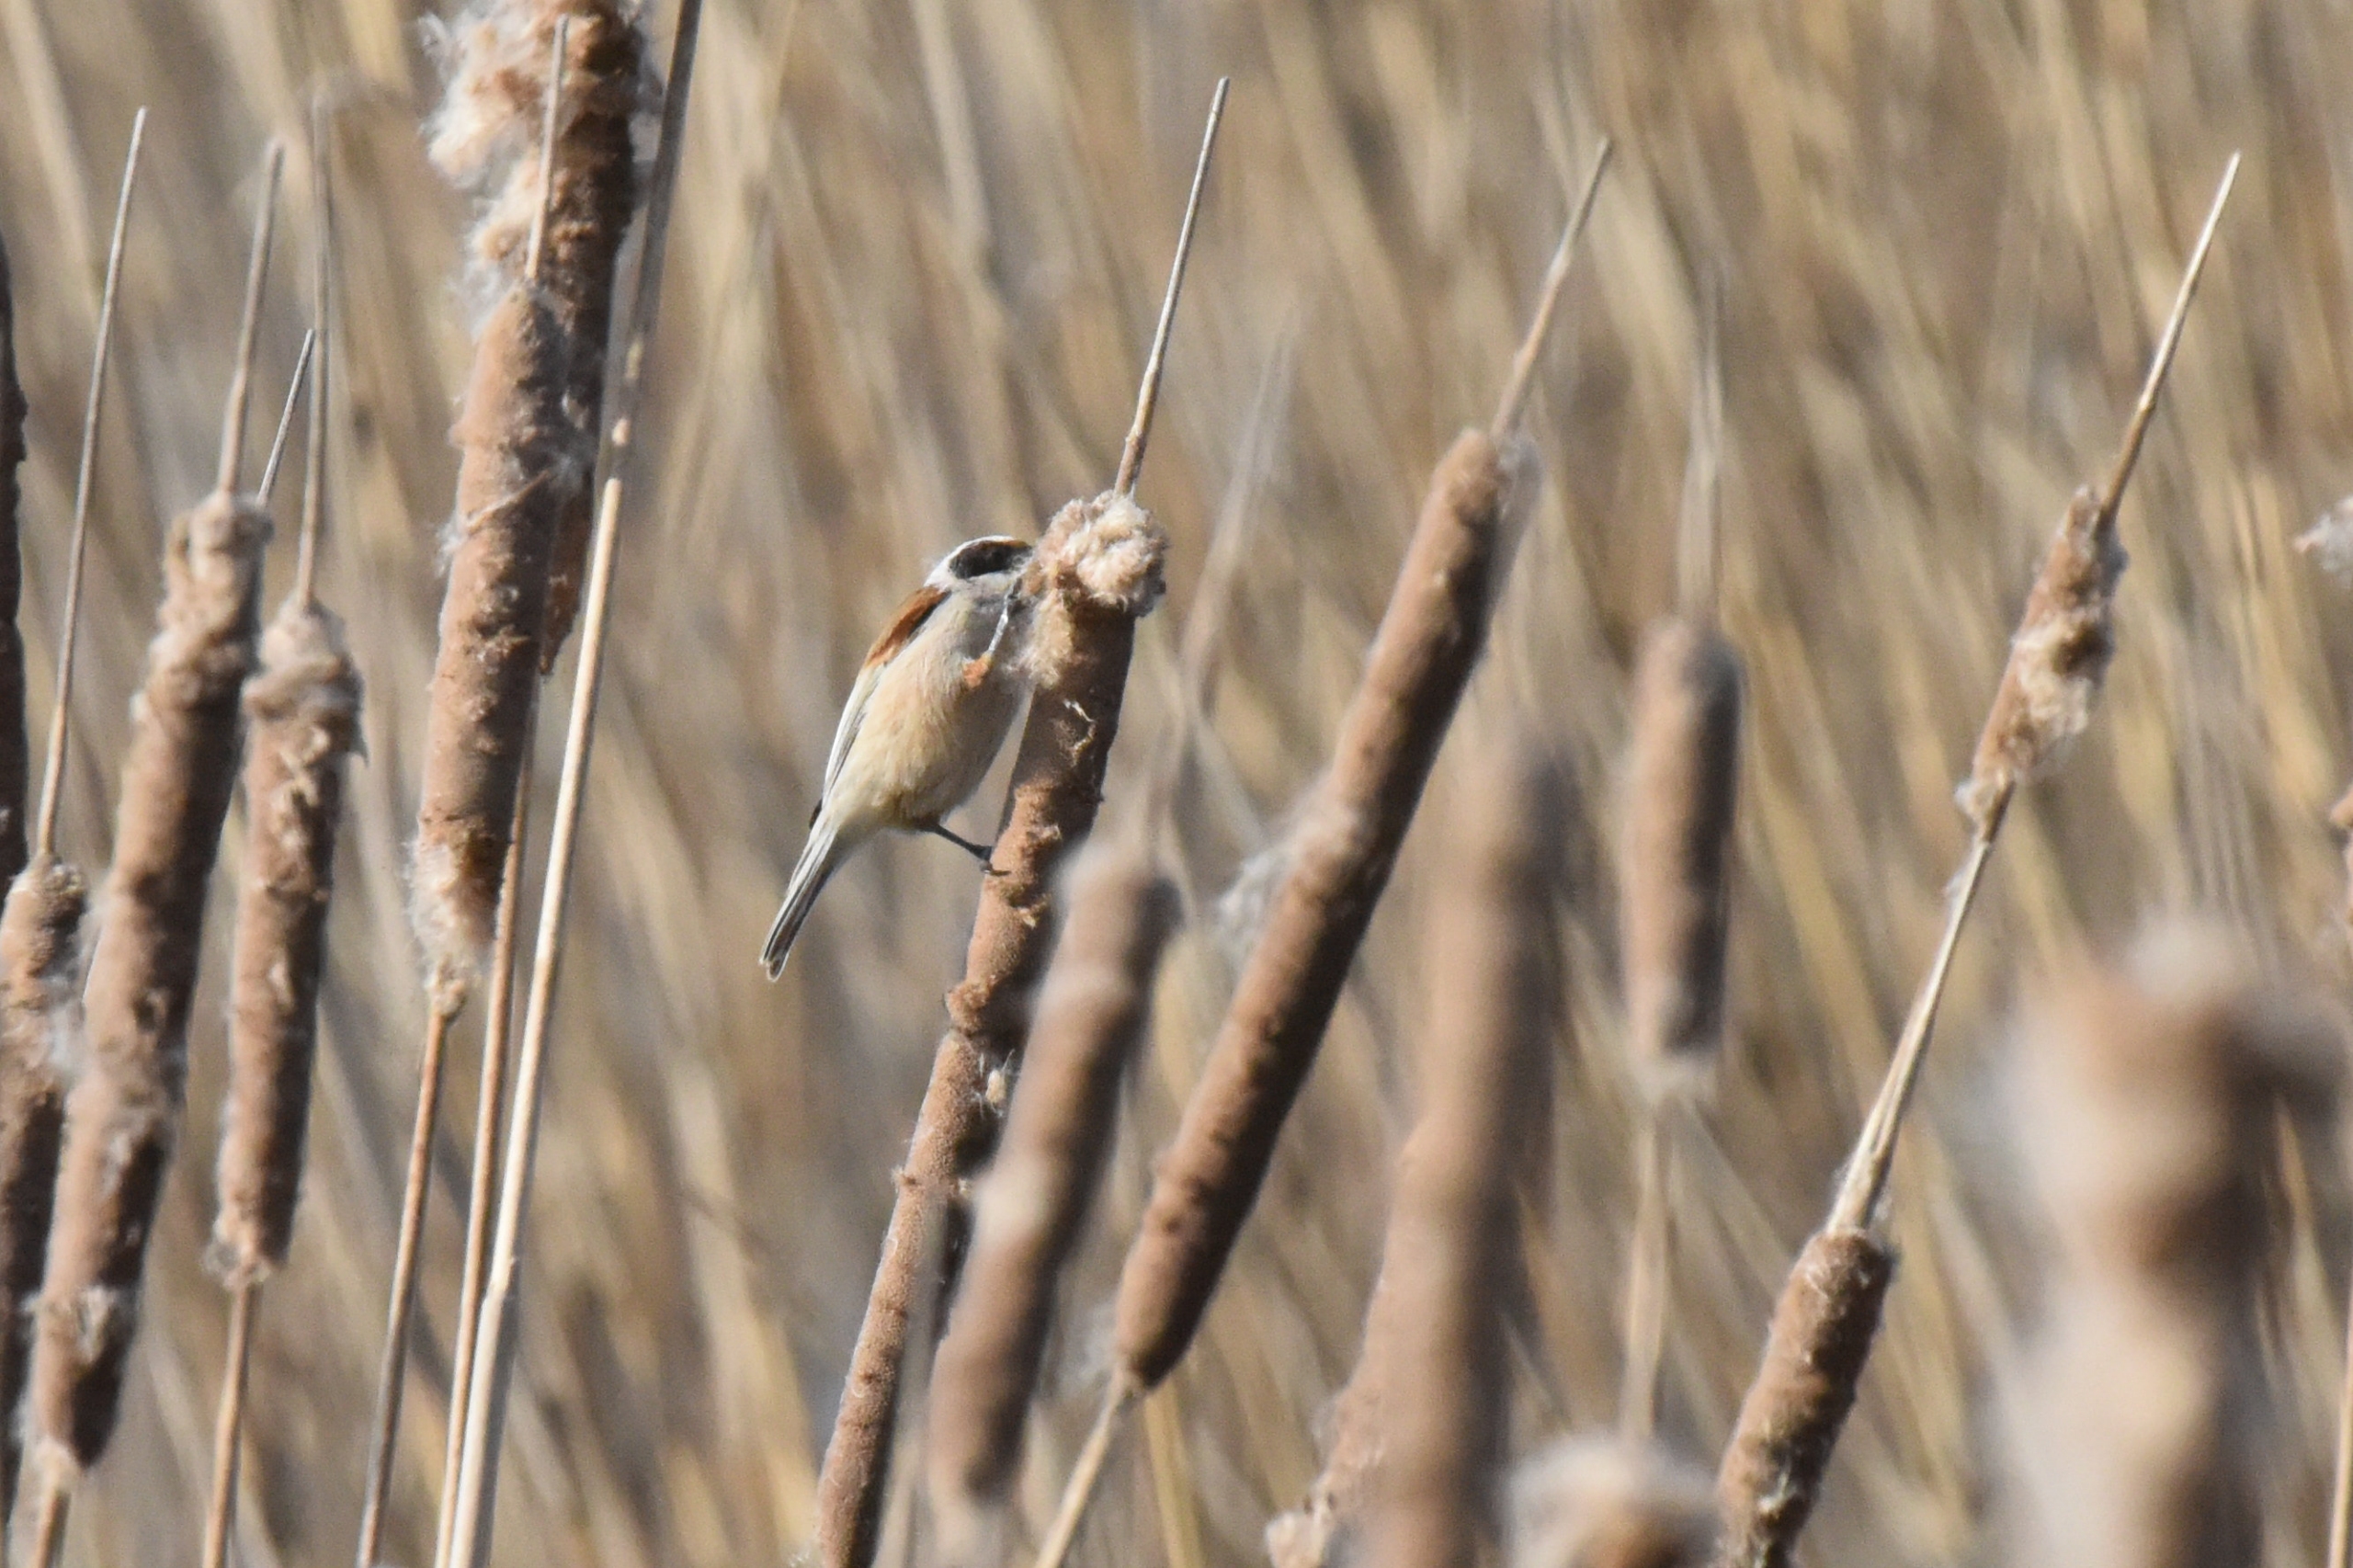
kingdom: Animalia
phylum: Chordata
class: Aves
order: Passeriformes
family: Remizidae
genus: Remiz
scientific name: Remiz pendulinus
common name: Pungmejse
